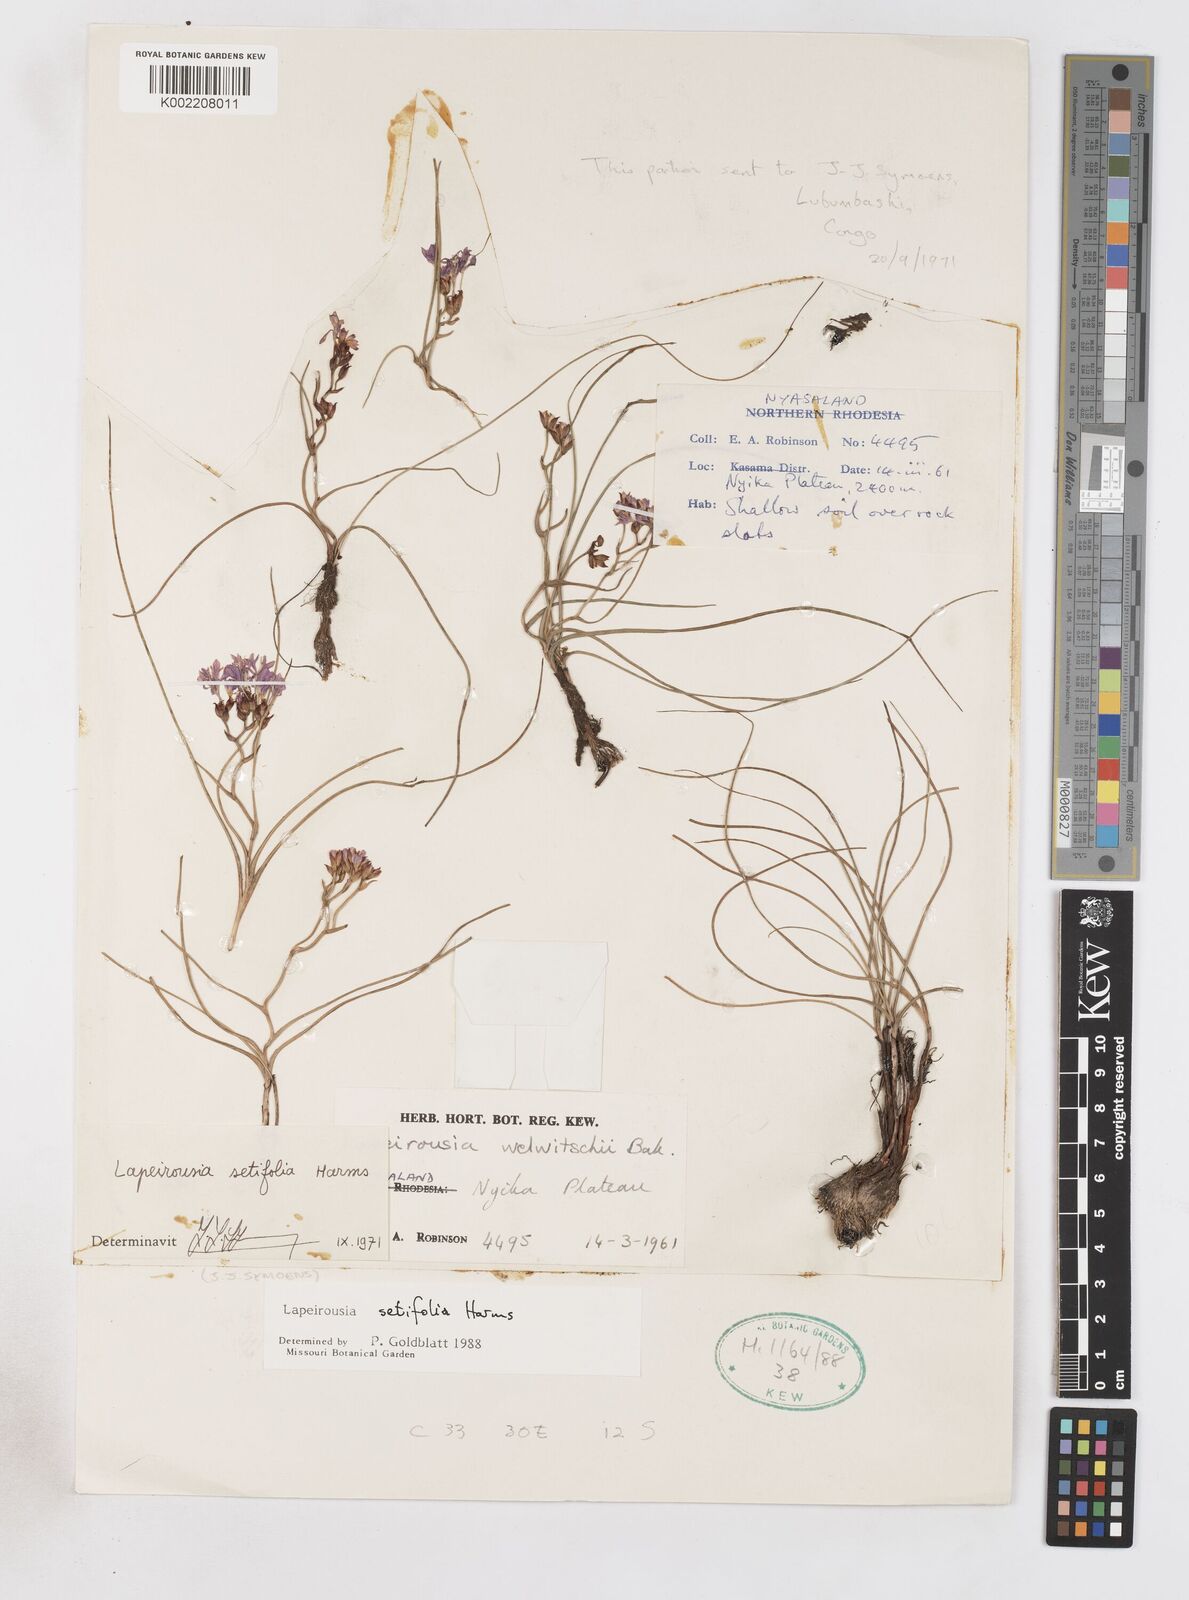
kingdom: Plantae
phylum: Tracheophyta
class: Liliopsida
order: Asparagales
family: Iridaceae
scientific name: Iridaceae
